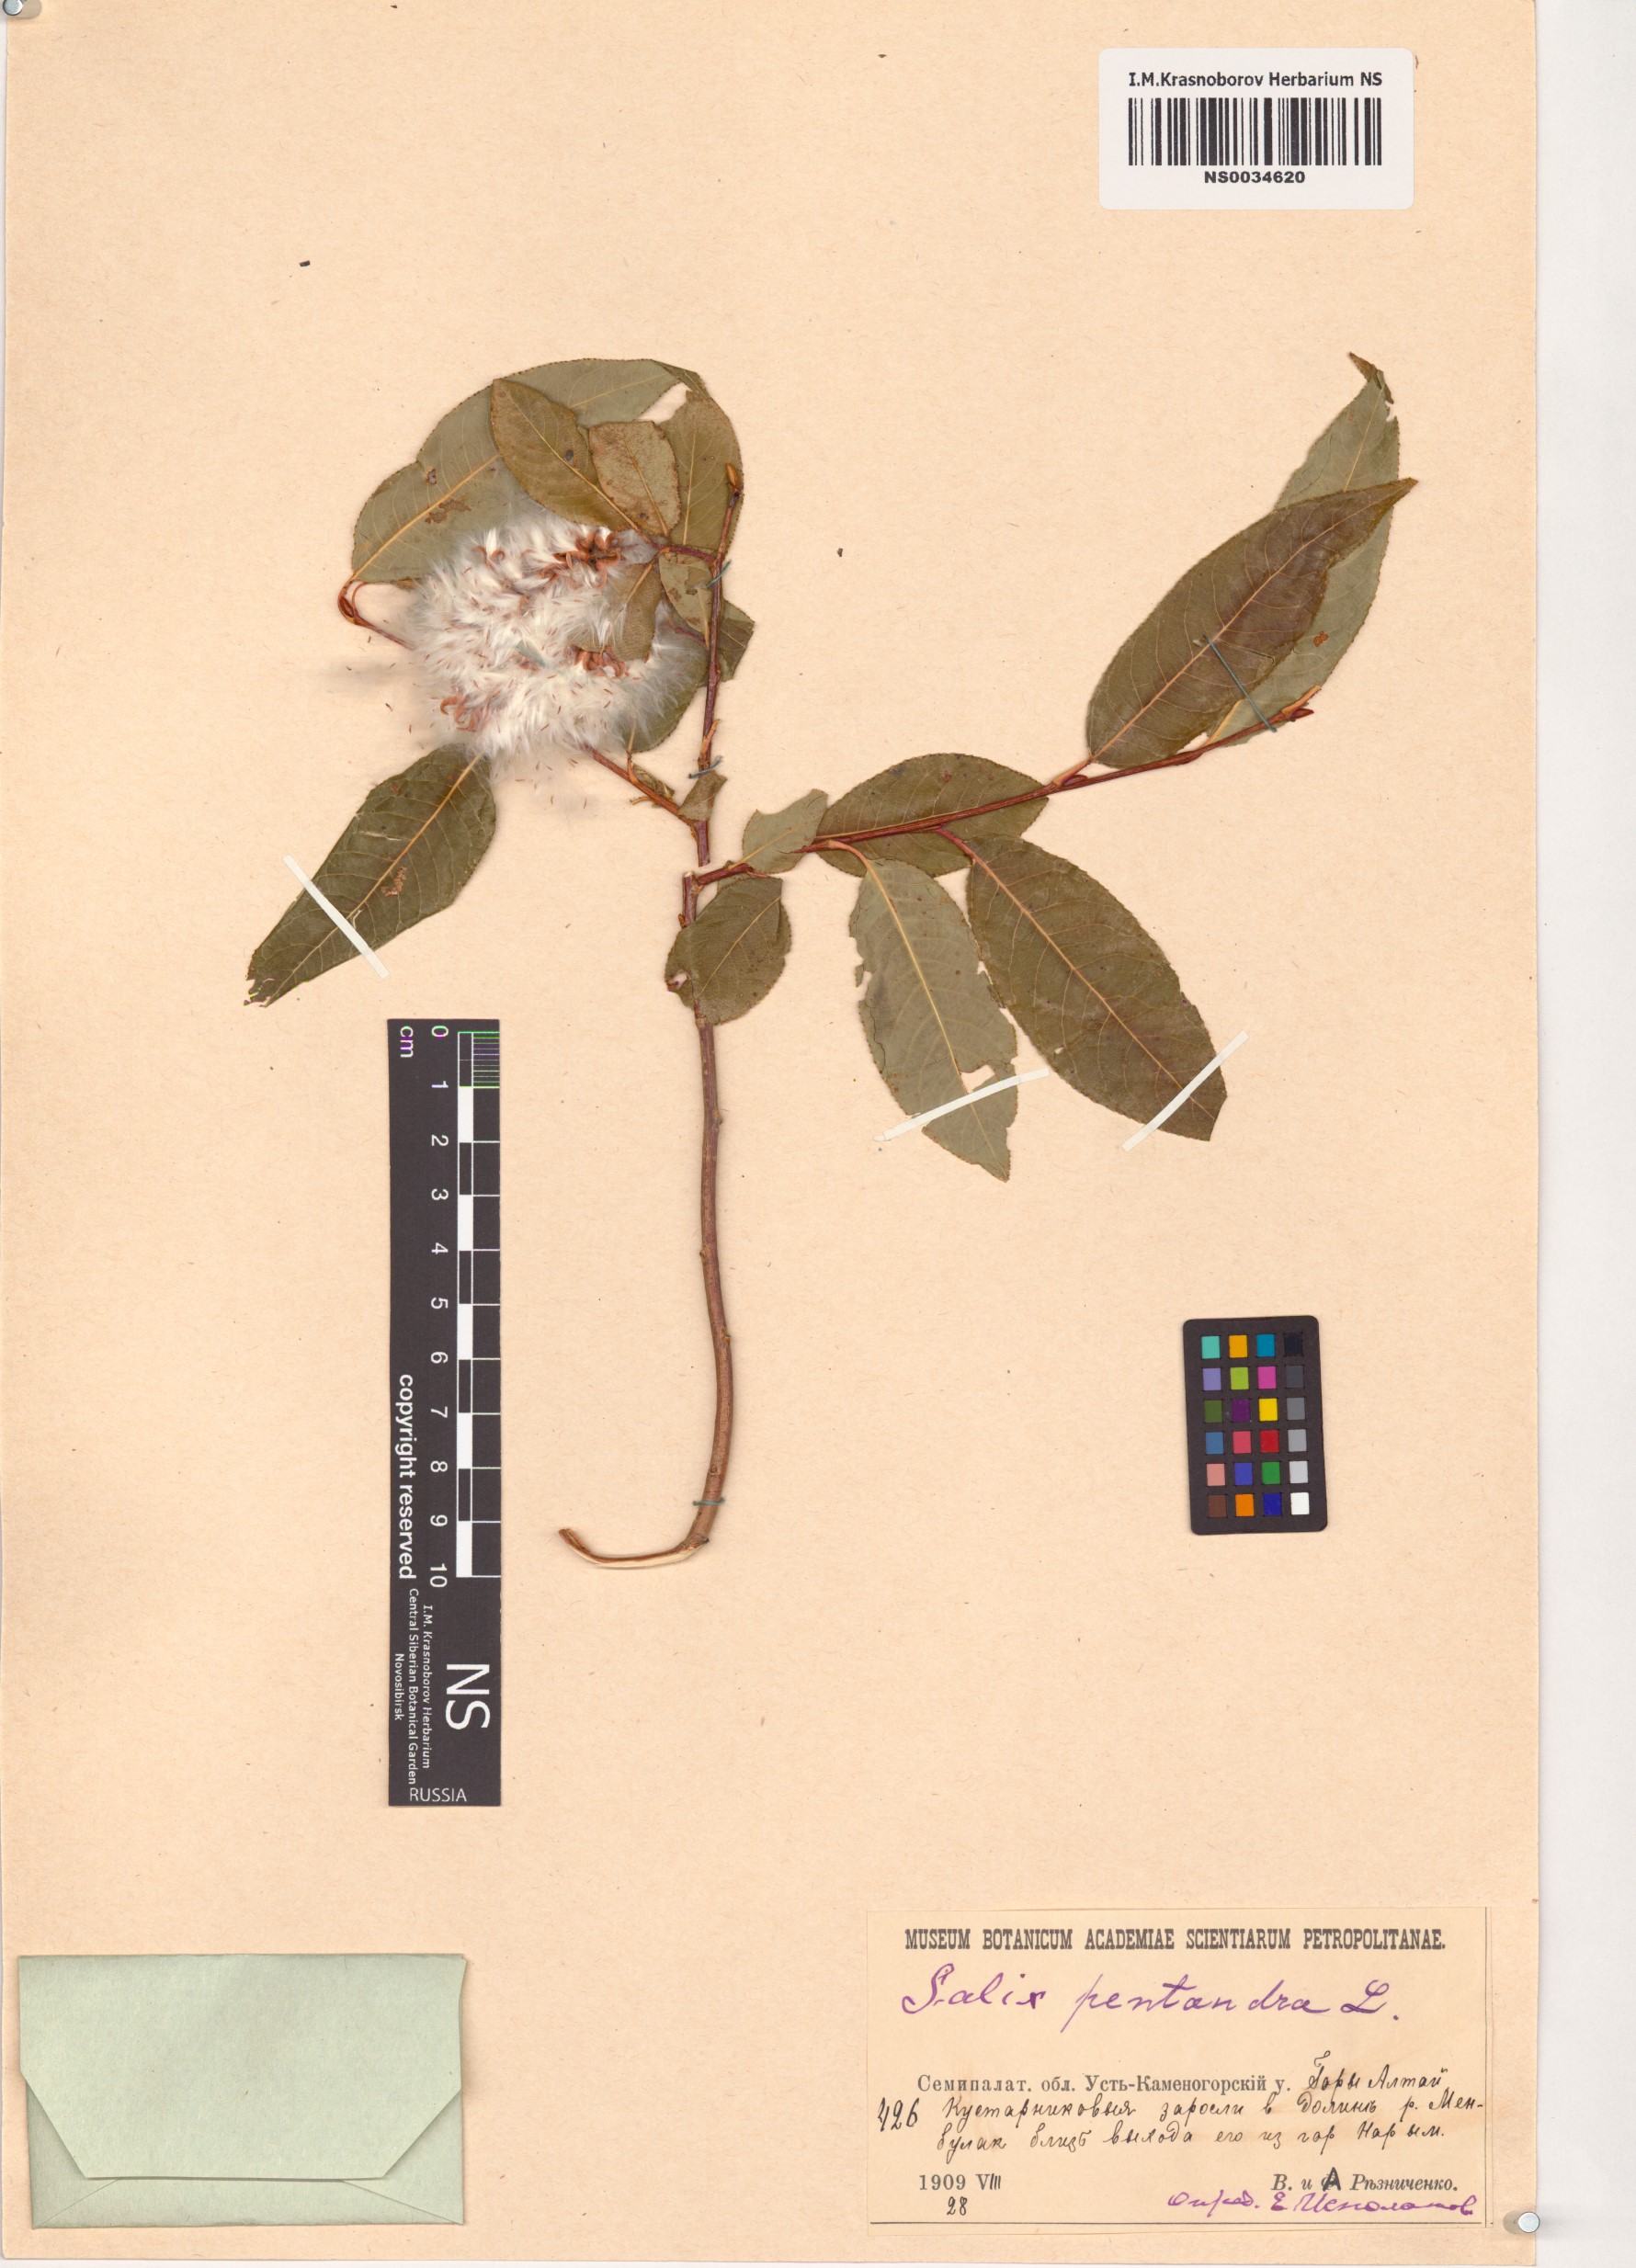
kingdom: Plantae
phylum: Tracheophyta
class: Magnoliopsida
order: Malpighiales
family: Salicaceae
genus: Salix
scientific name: Salix pentandra
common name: Bay willow
